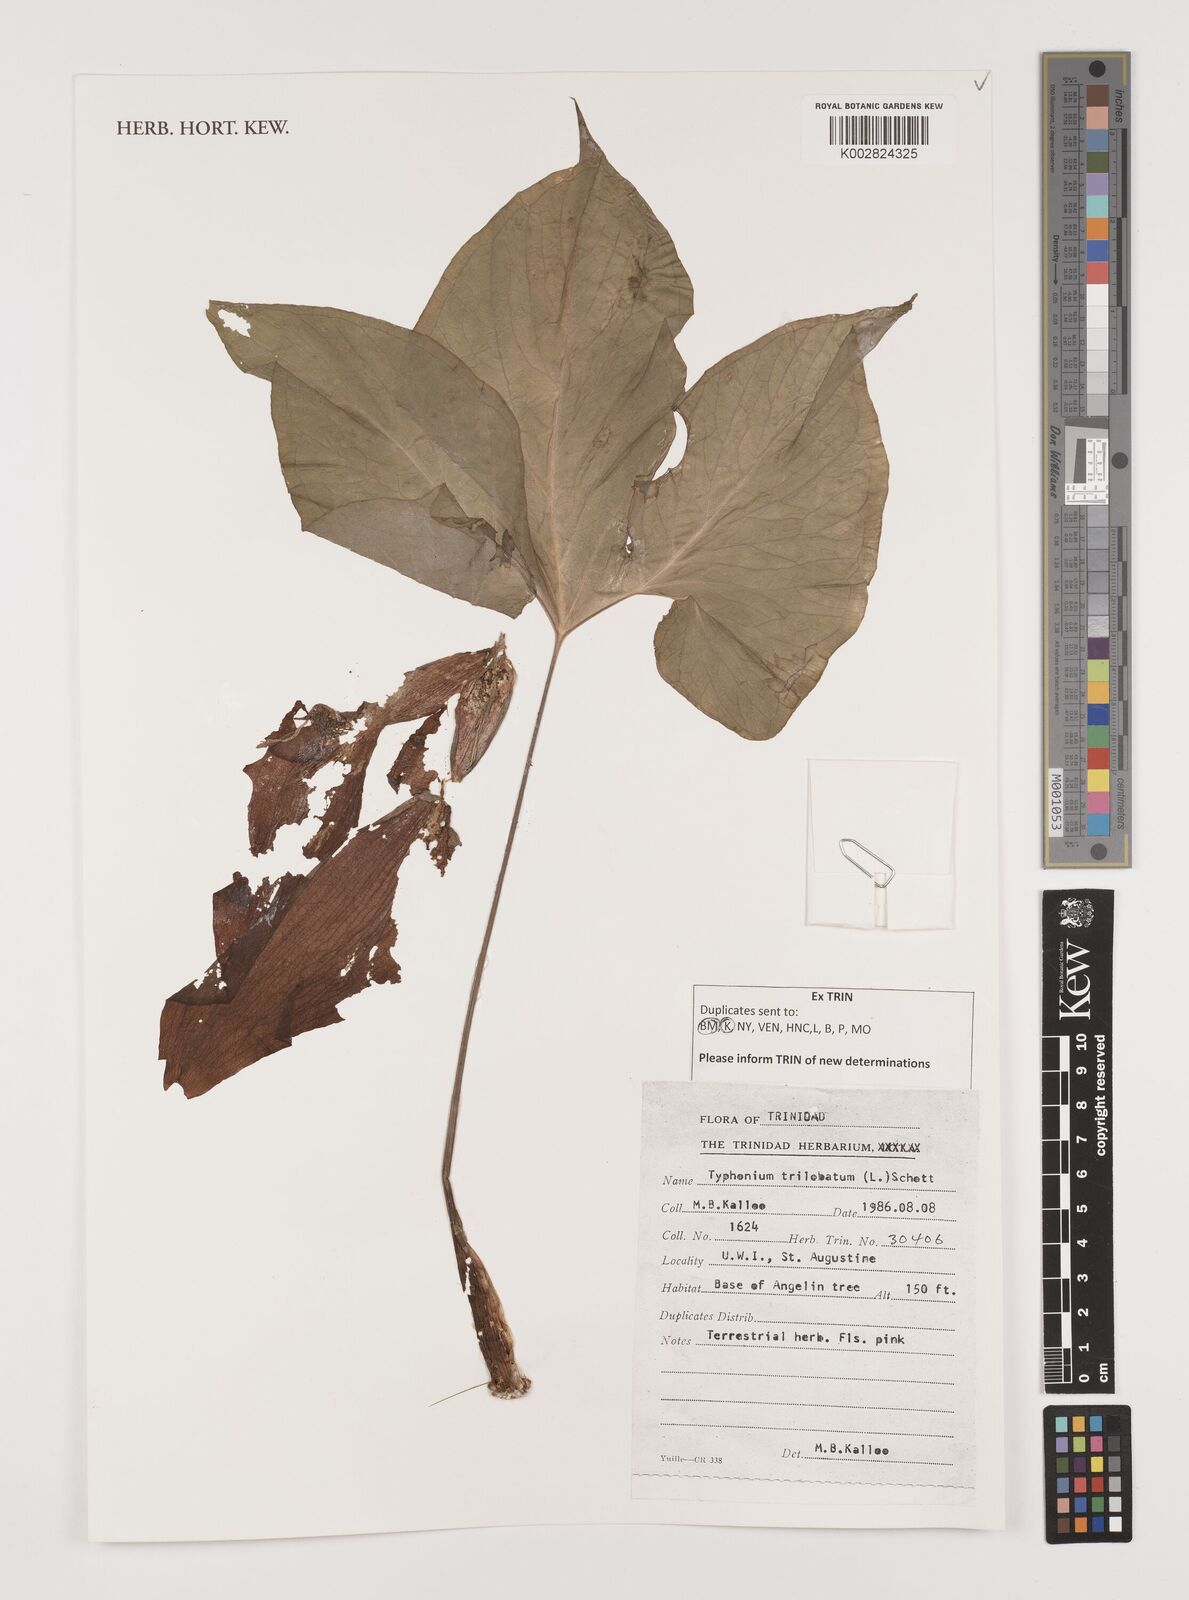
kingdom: Plantae
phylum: Tracheophyta
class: Liliopsida
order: Alismatales
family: Araceae
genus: Typhonium
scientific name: Typhonium trilobatum
